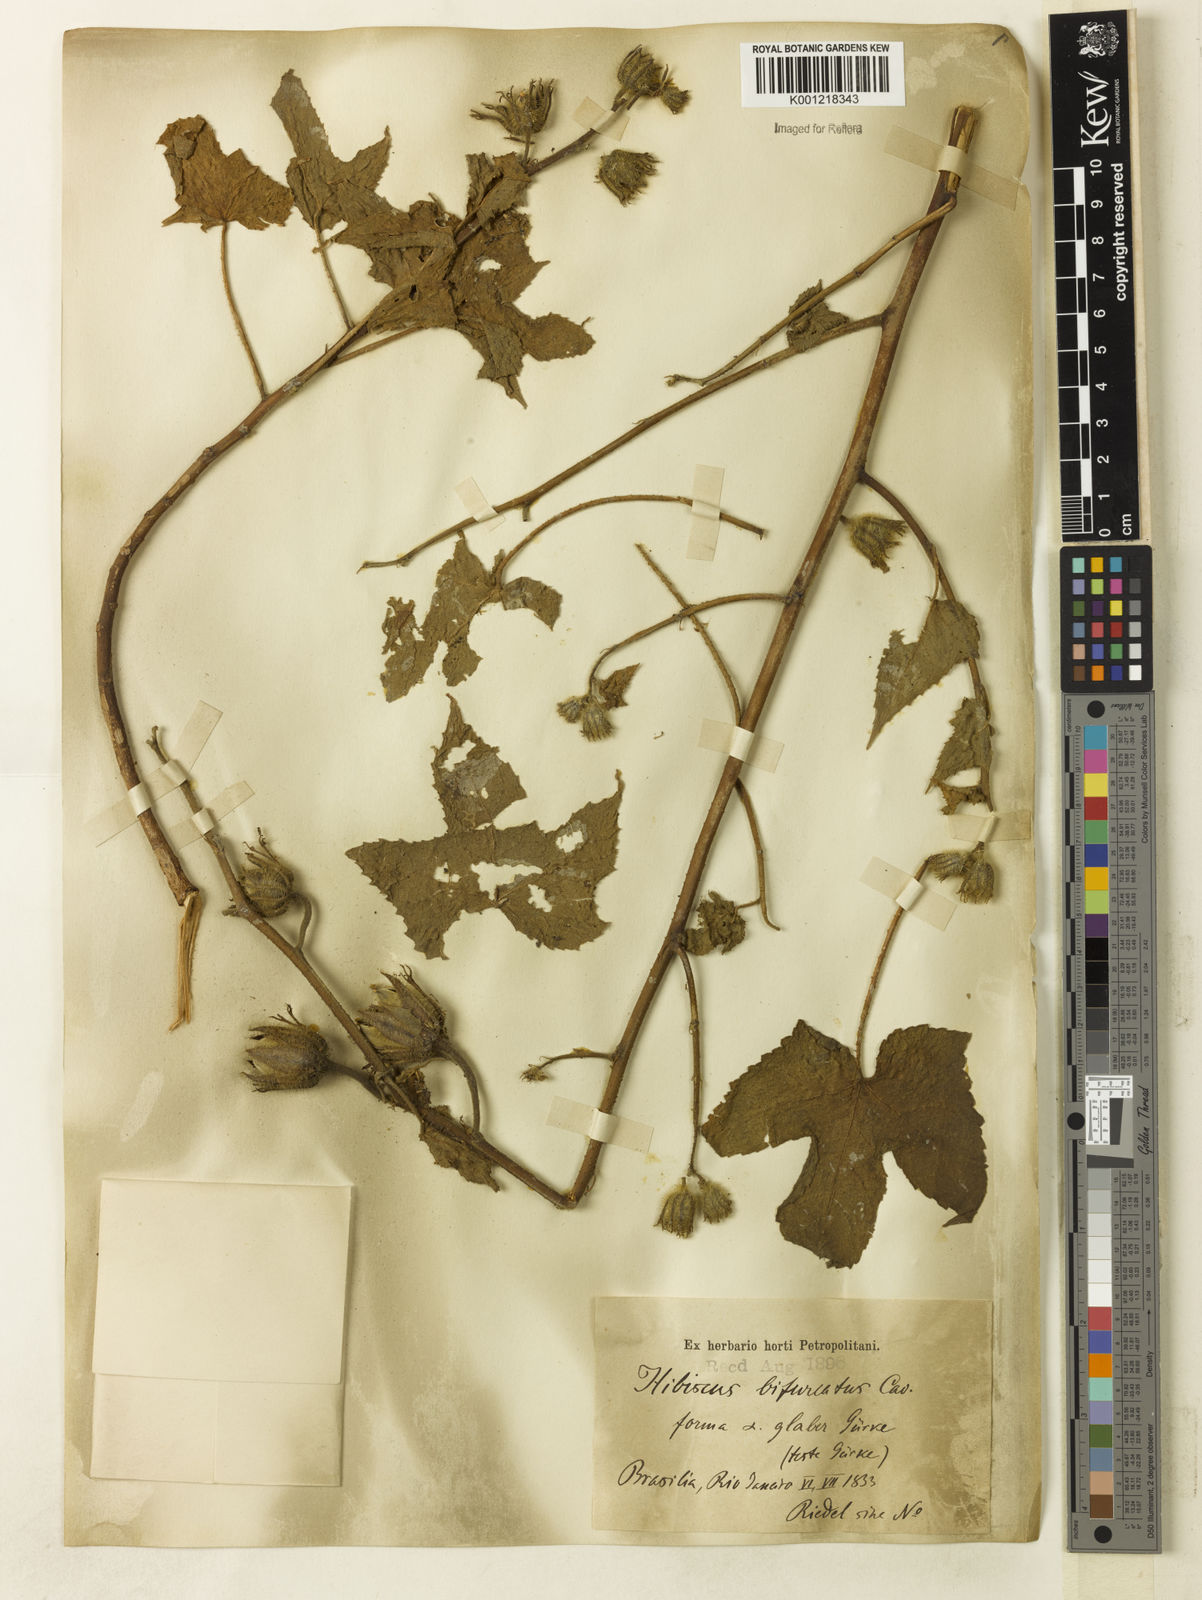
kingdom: Plantae
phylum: Tracheophyta
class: Magnoliopsida
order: Malvales
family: Malvaceae
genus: Hibiscus
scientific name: Hibiscus bifurcatus
